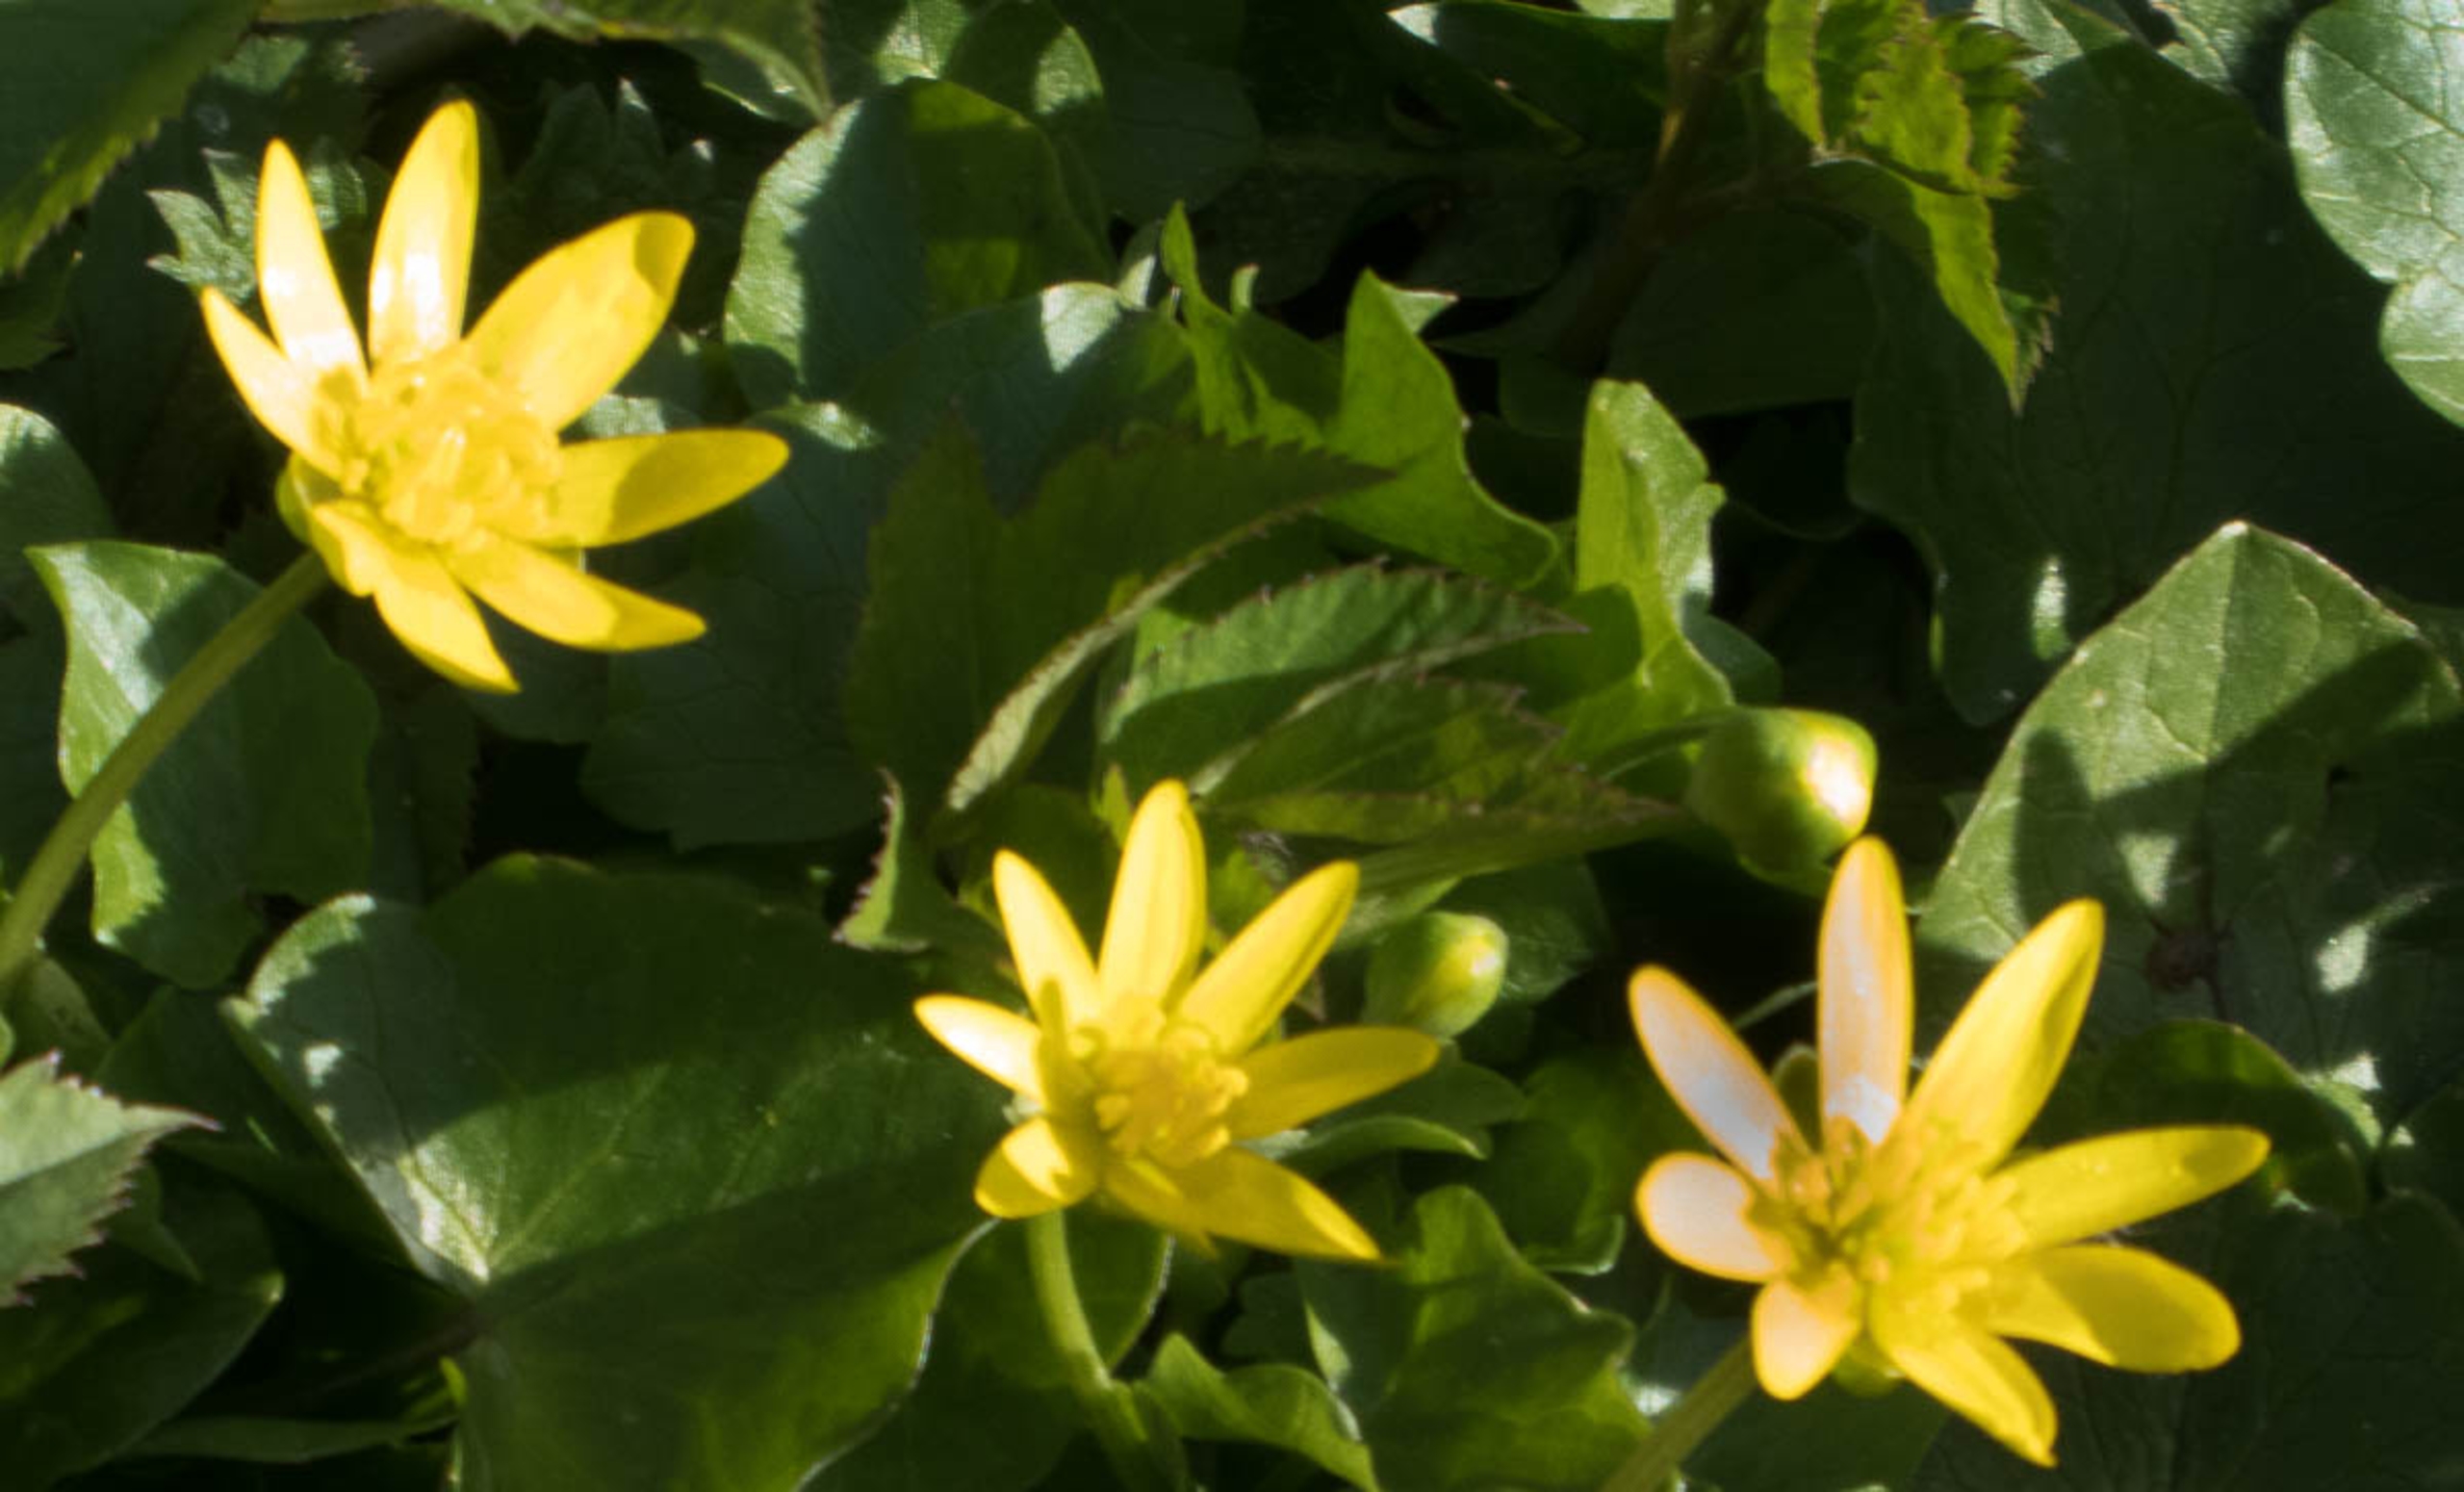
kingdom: Plantae
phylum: Tracheophyta
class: Magnoliopsida
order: Ranunculales
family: Ranunculaceae
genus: Ficaria
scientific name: Ficaria verna
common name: Vorterod
